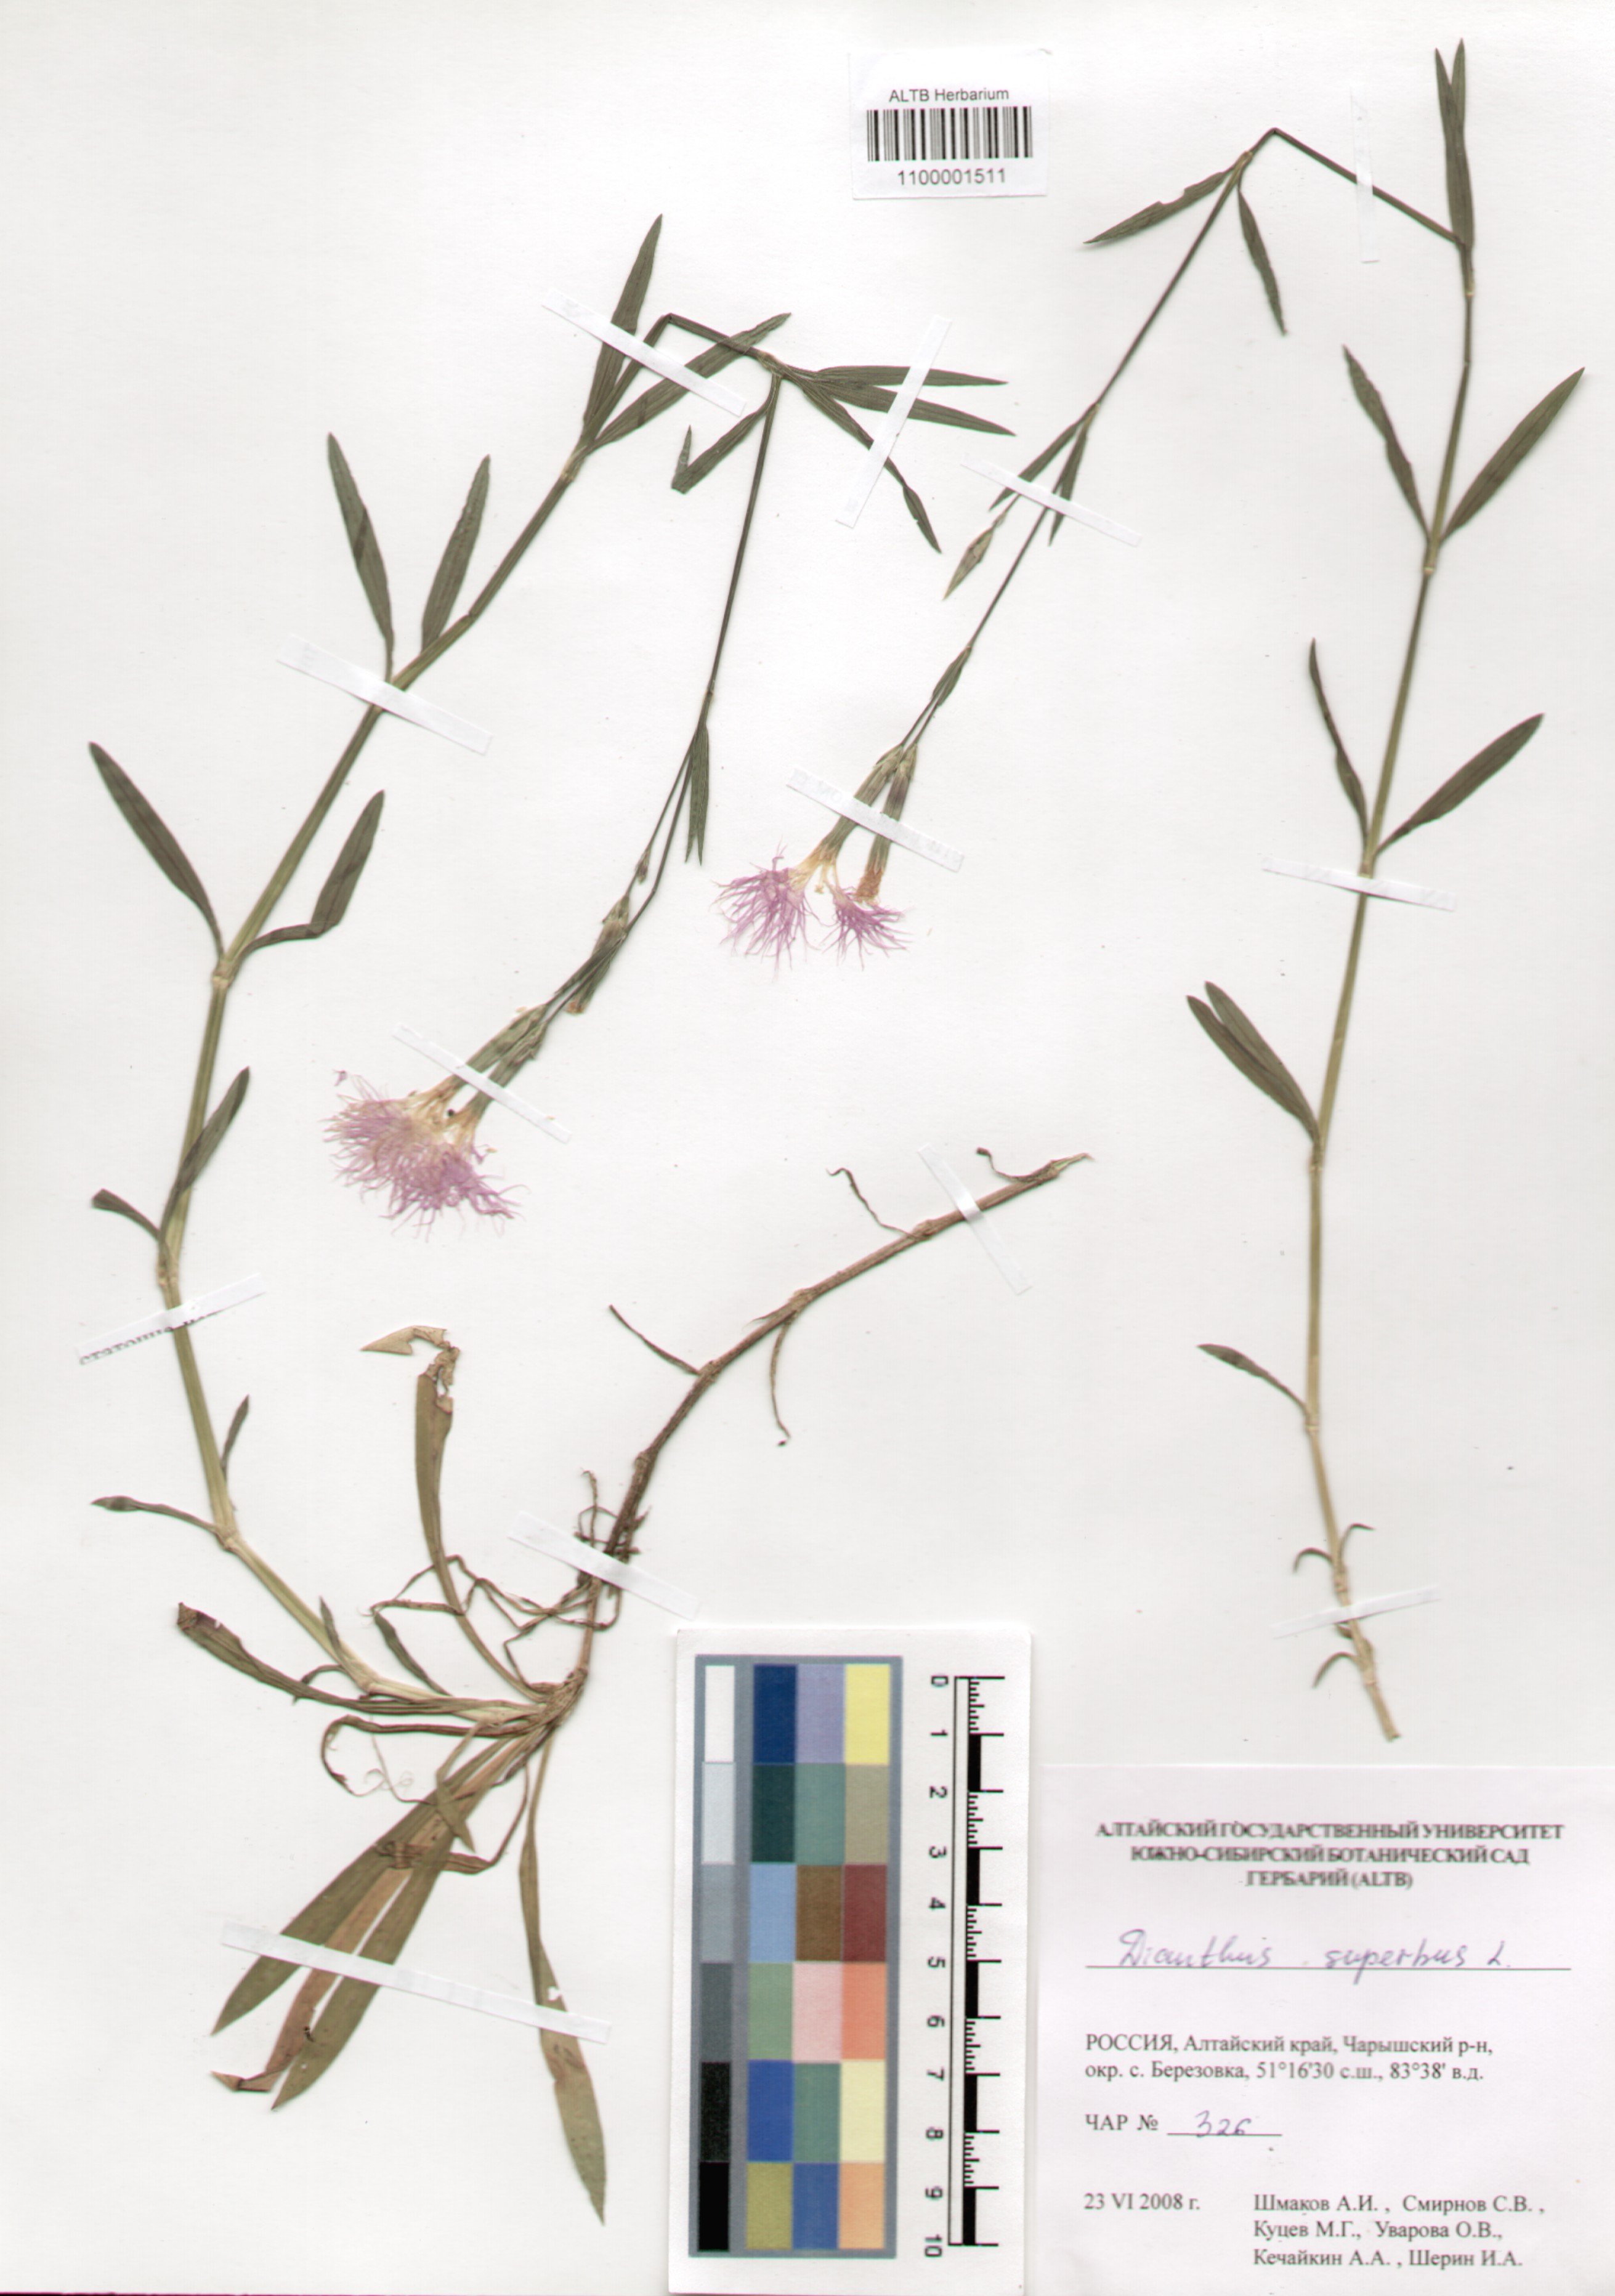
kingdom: Plantae
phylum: Tracheophyta
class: Magnoliopsida
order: Caryophyllales
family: Caryophyllaceae
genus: Dianthus
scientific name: Dianthus superbus
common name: Fringed pink
